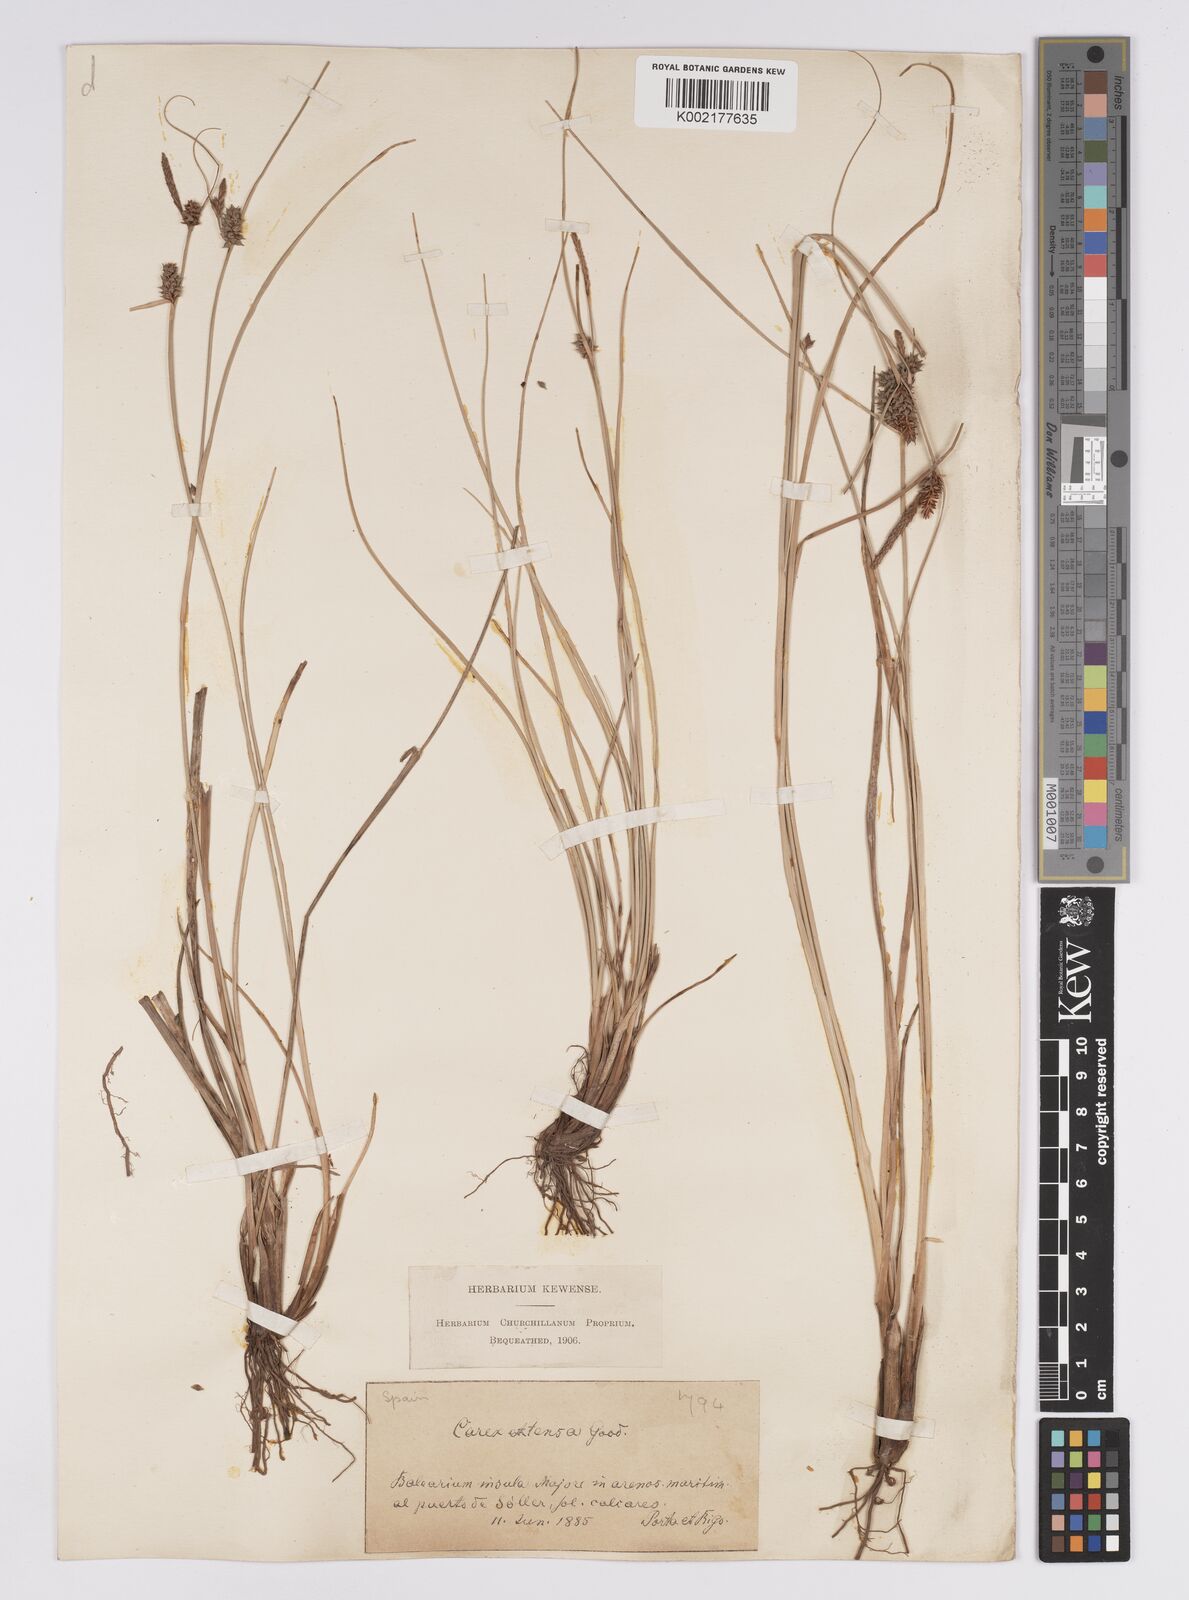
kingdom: Plantae
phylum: Tracheophyta
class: Liliopsida
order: Poales
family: Cyperaceae
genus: Carex
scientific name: Carex extensa
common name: Long-bracted sedge
